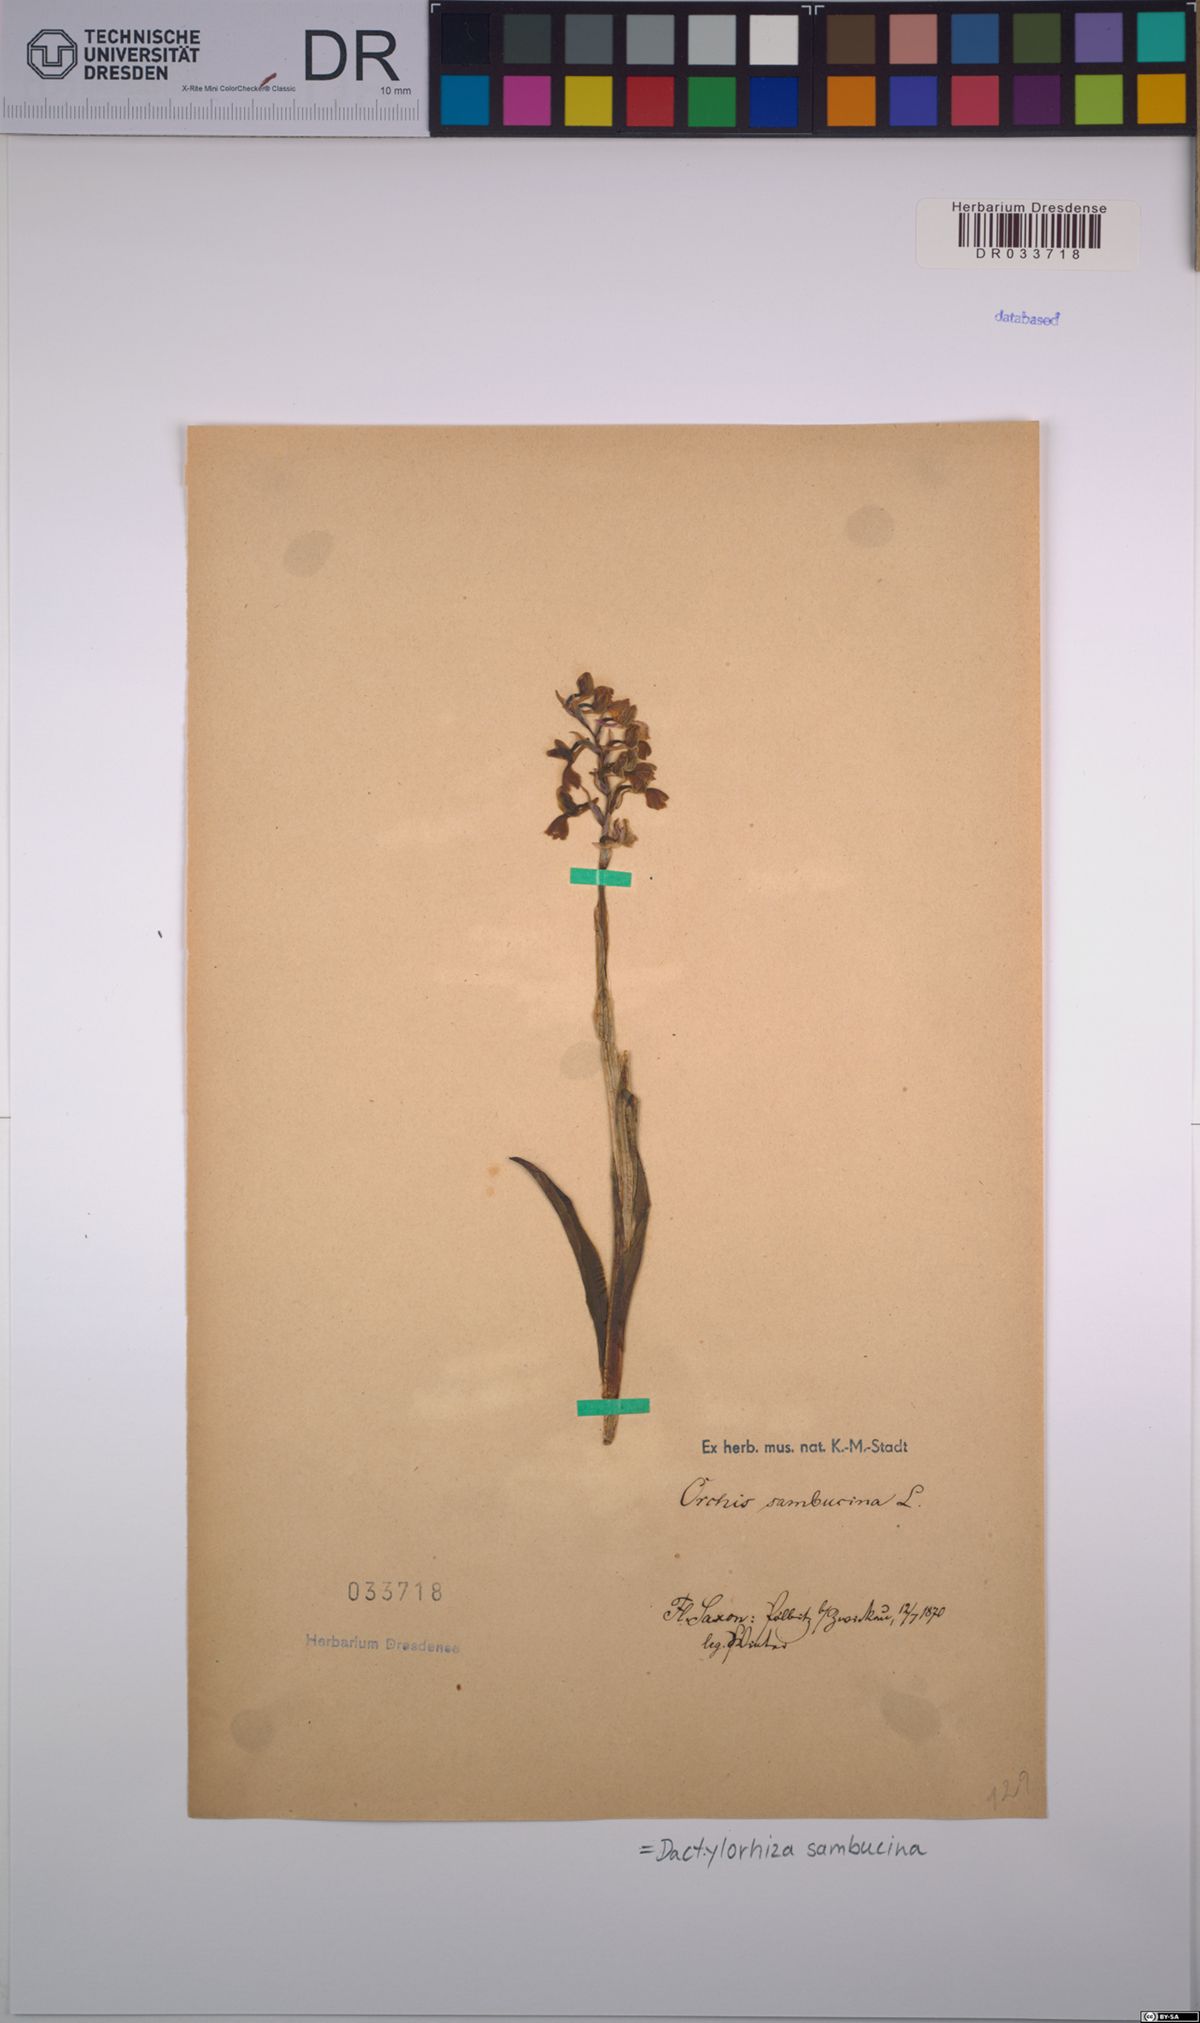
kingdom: Plantae
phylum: Tracheophyta
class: Liliopsida
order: Asparagales
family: Orchidaceae
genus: Dactylorhiza
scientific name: Dactylorhiza sambucina
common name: Elder-flowered orchid
